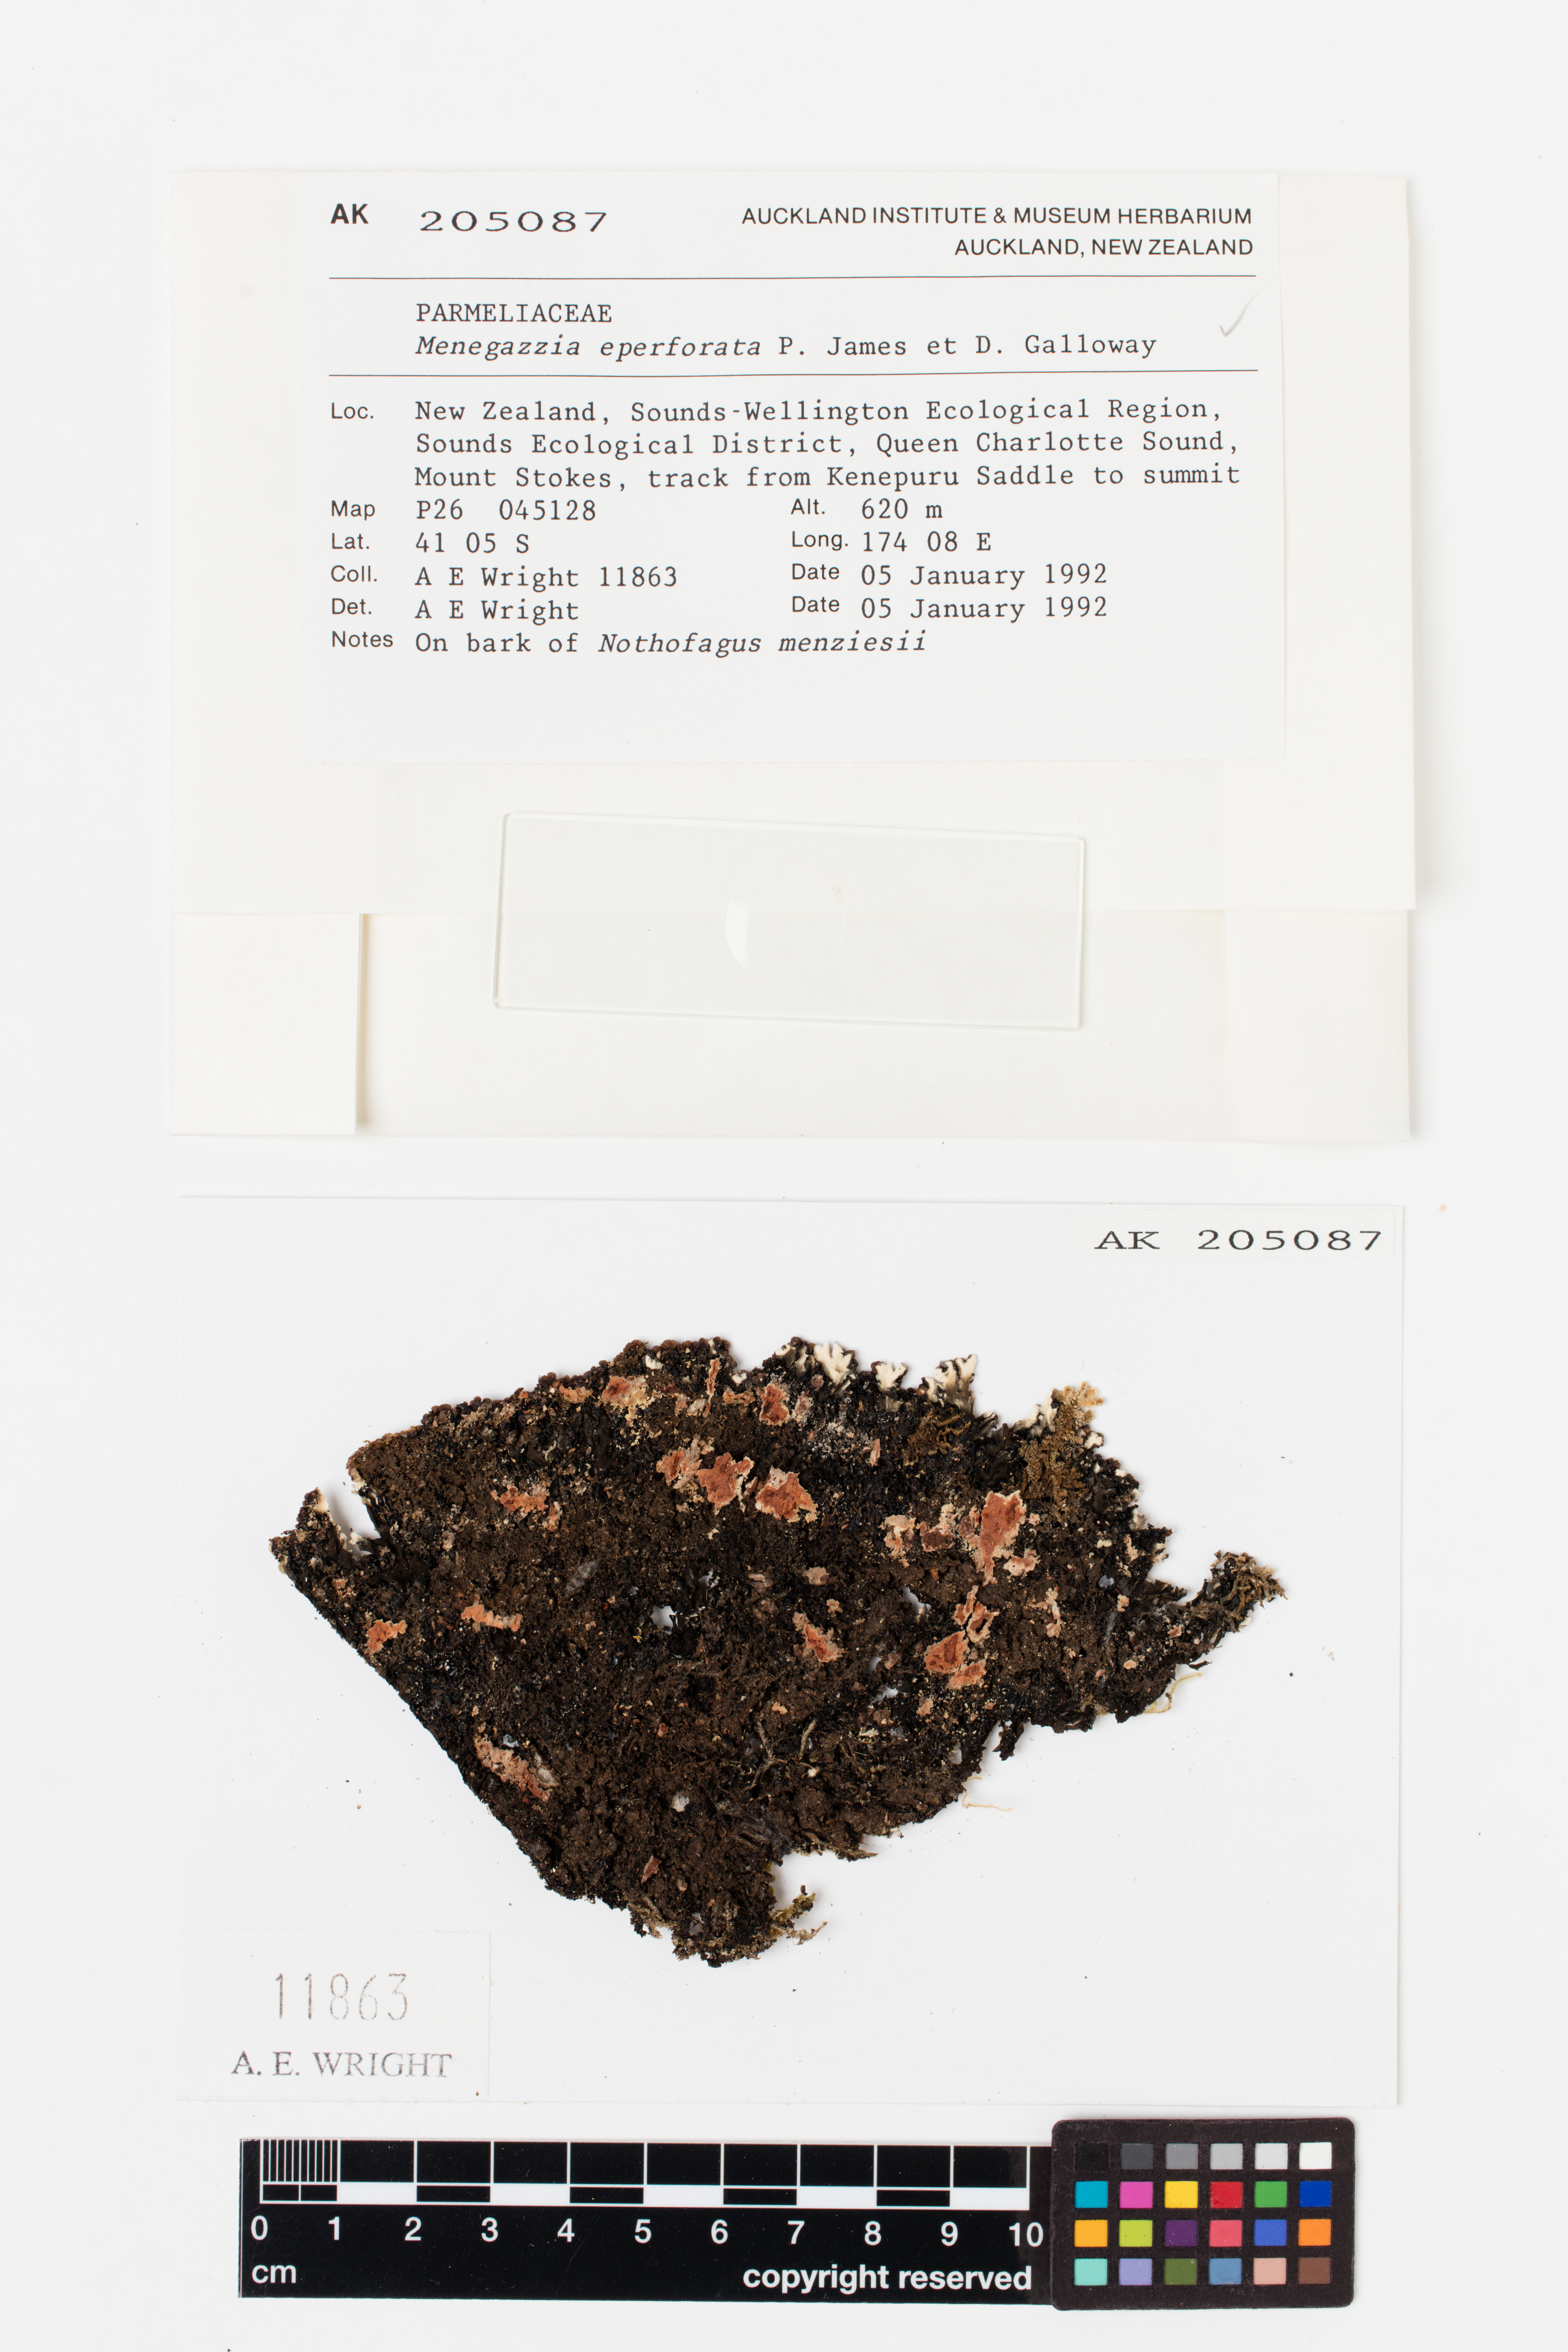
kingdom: Fungi
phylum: Ascomycota
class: Lecanoromycetes
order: Lecanorales
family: Parmeliaceae
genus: Menegazzia
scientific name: Menegazzia eperforata
